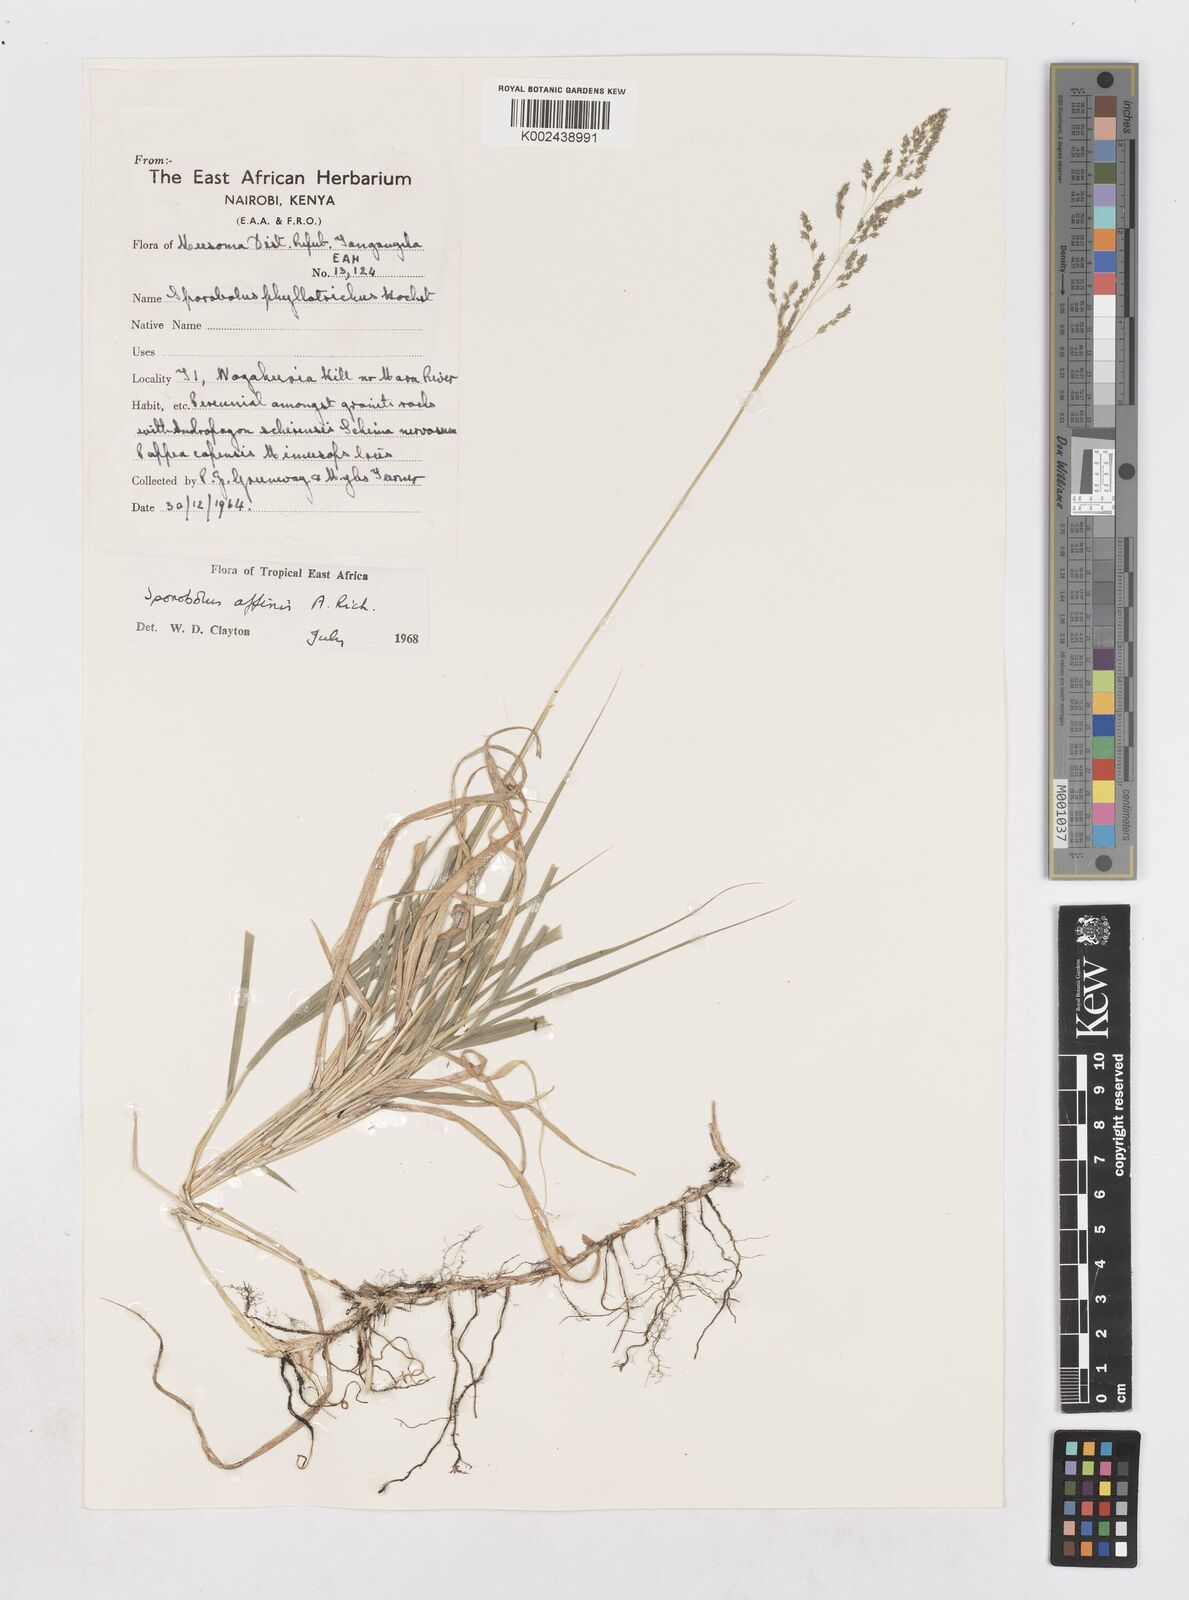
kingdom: Plantae
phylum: Tracheophyta
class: Liliopsida
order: Poales
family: Poaceae
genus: Sporobolus
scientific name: Sporobolus confinis
